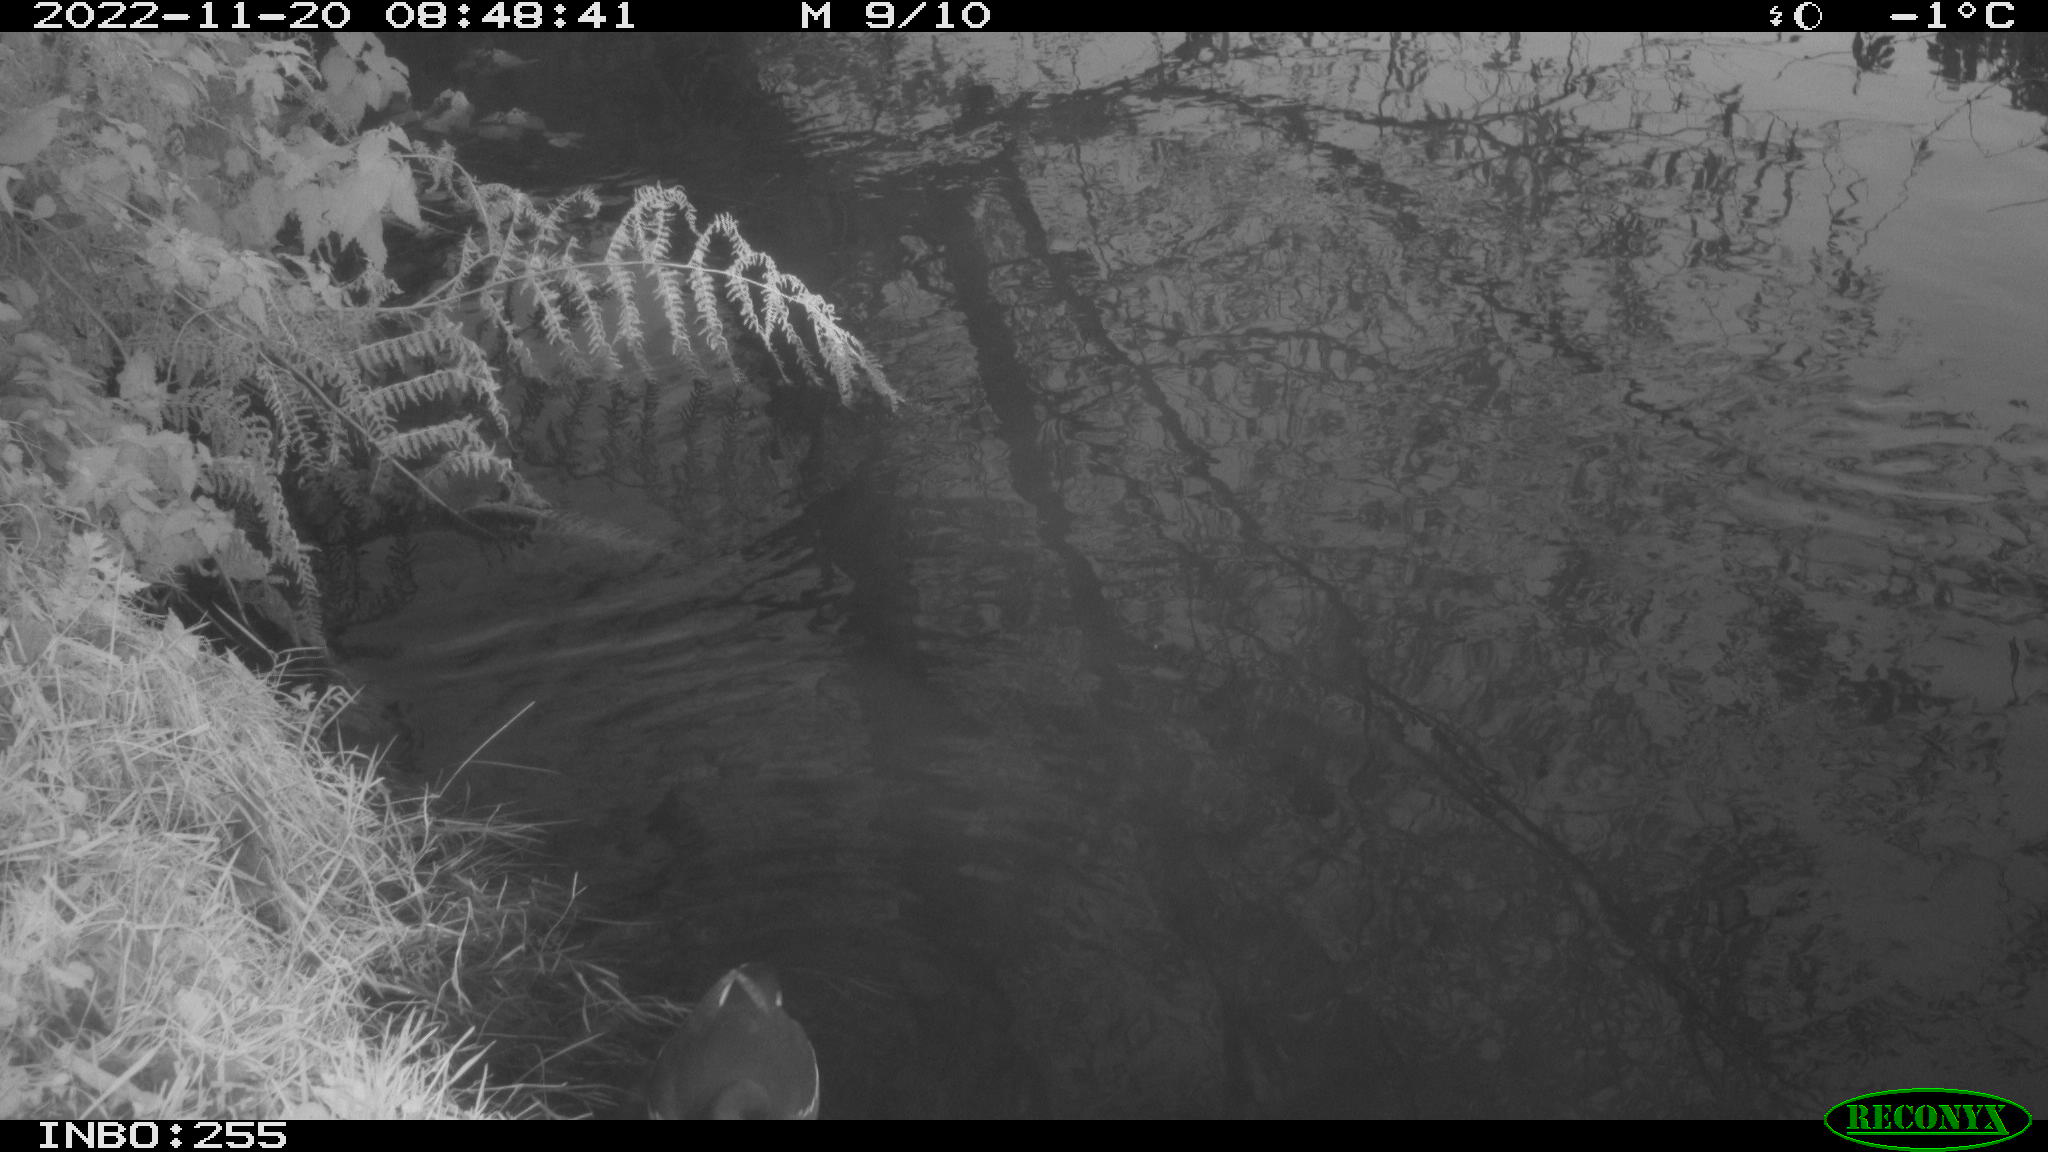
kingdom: Animalia
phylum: Chordata
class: Aves
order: Gruiformes
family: Rallidae
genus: Gallinula
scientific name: Gallinula chloropus
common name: Common moorhen
